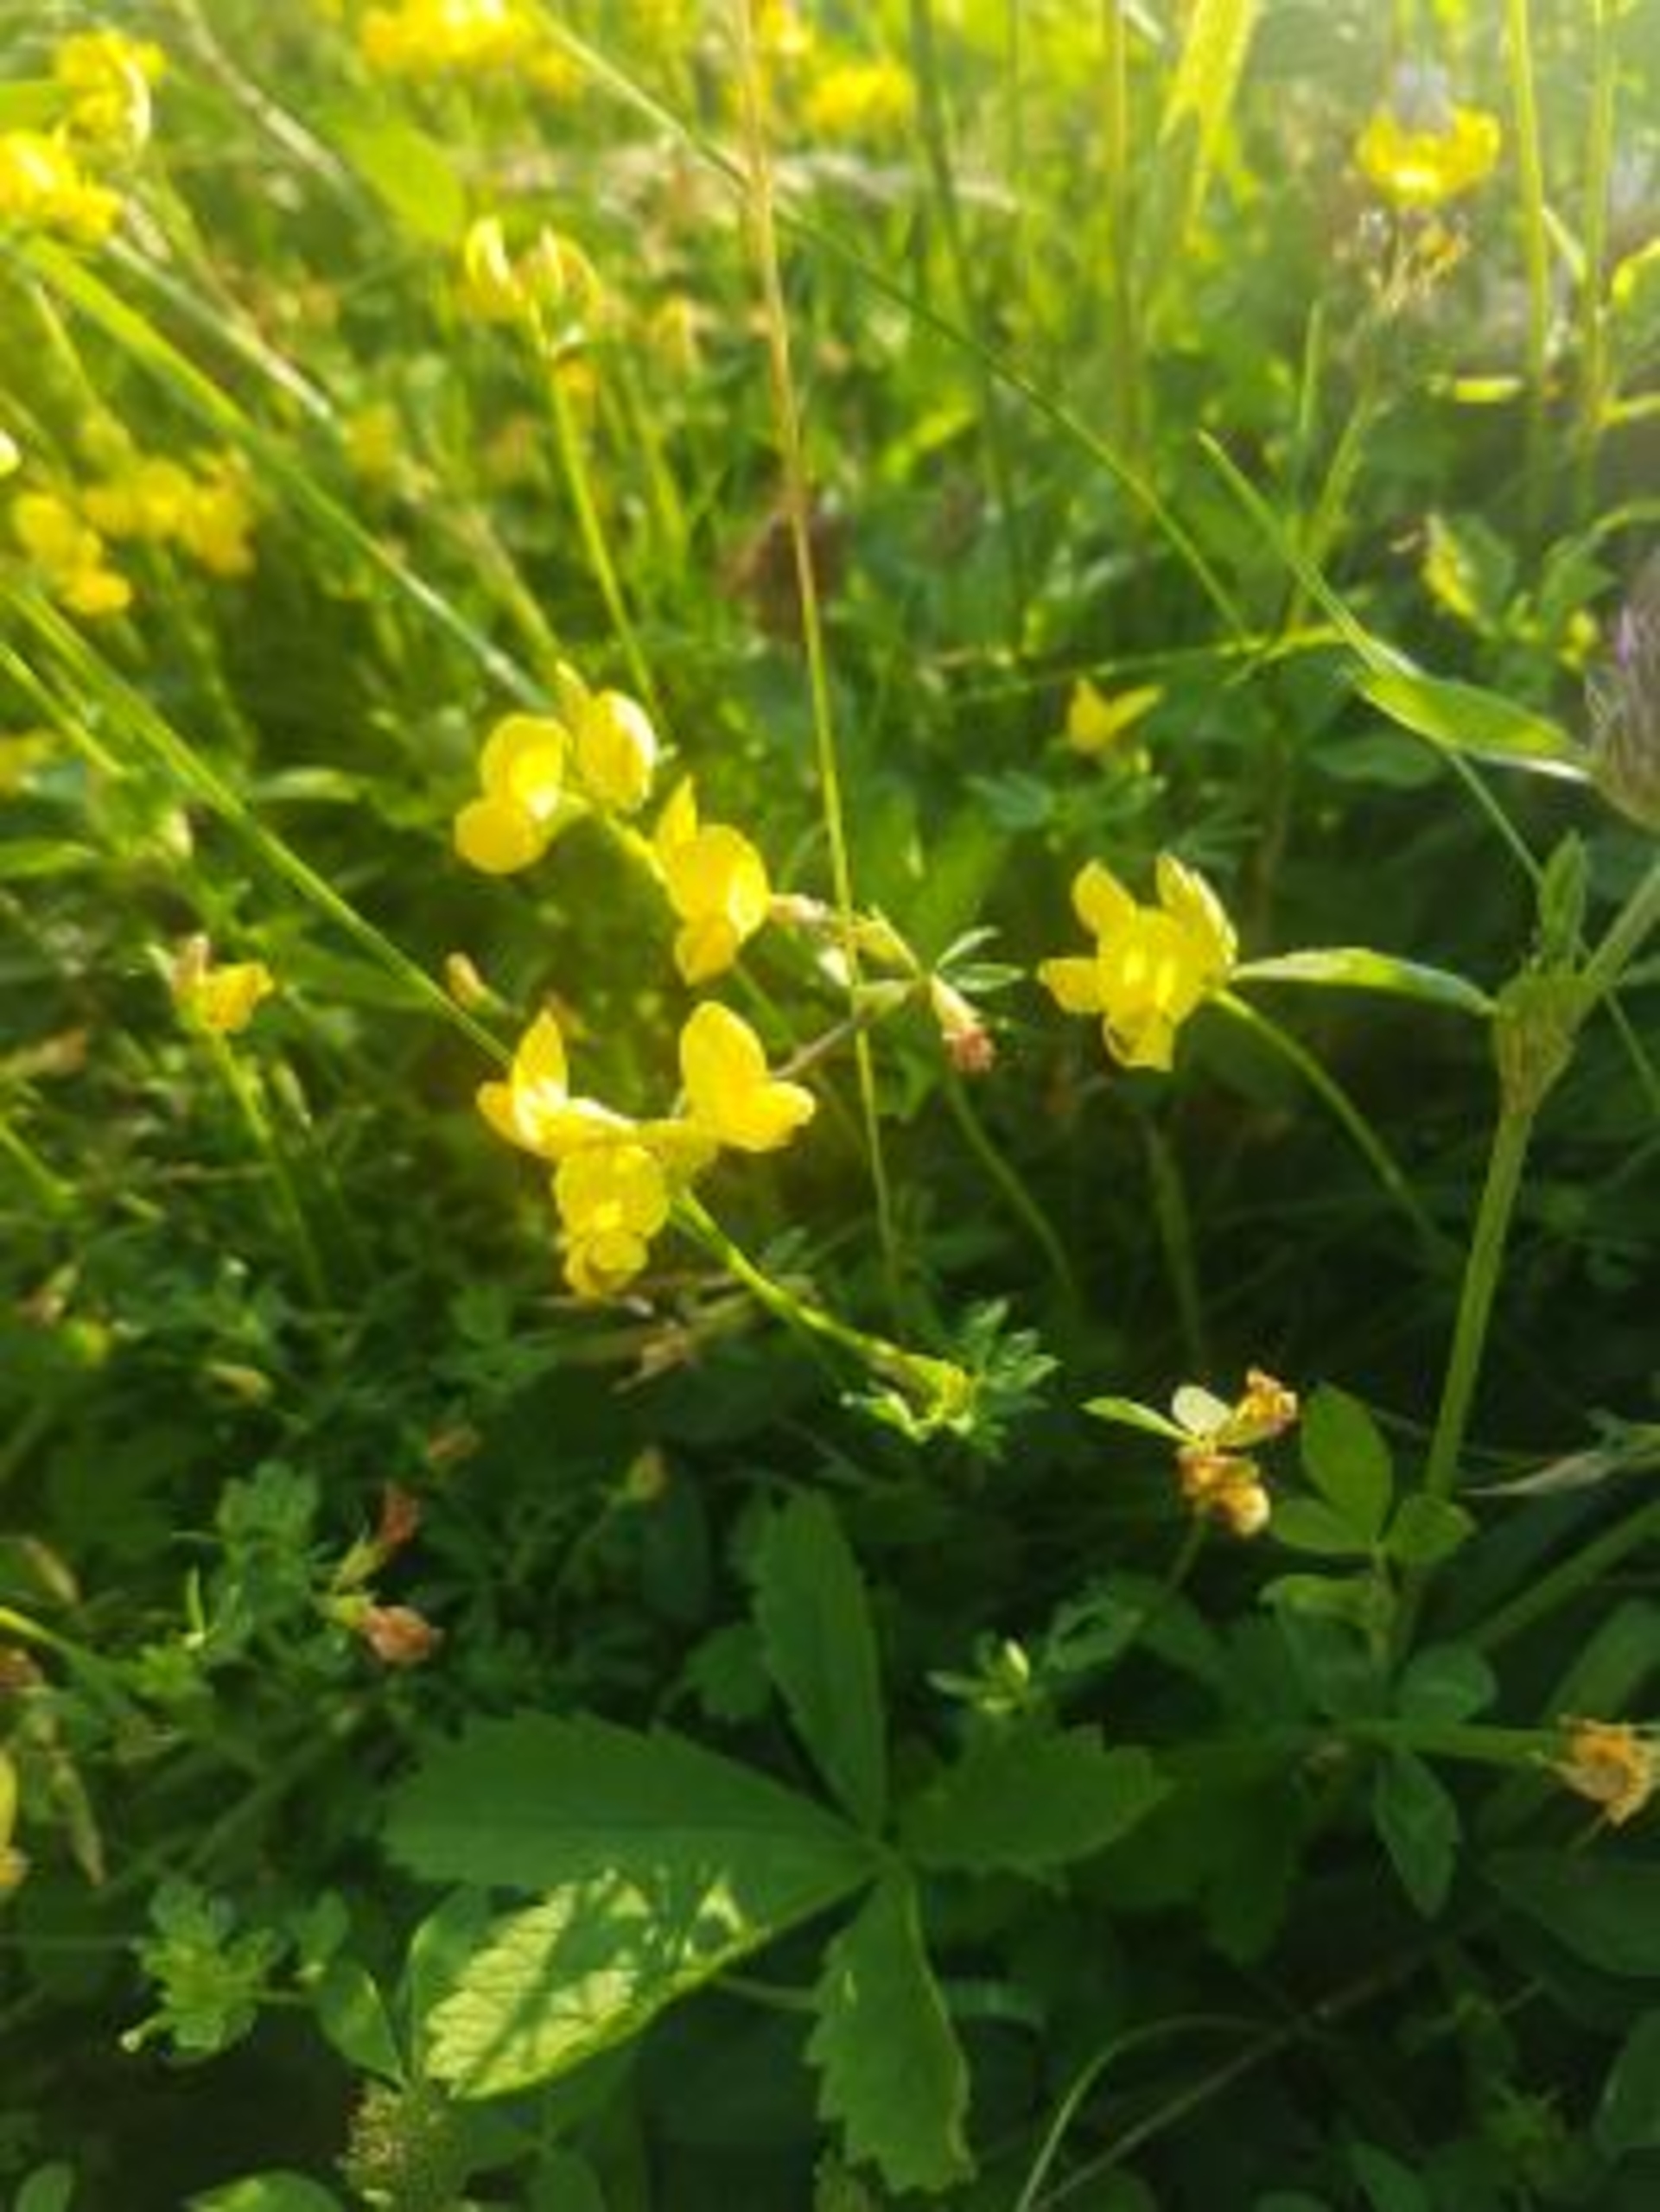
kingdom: Plantae
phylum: Tracheophyta
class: Magnoliopsida
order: Fabales
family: Fabaceae
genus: Lotus
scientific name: Lotus corniculatus
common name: Almindelig kællingetand
